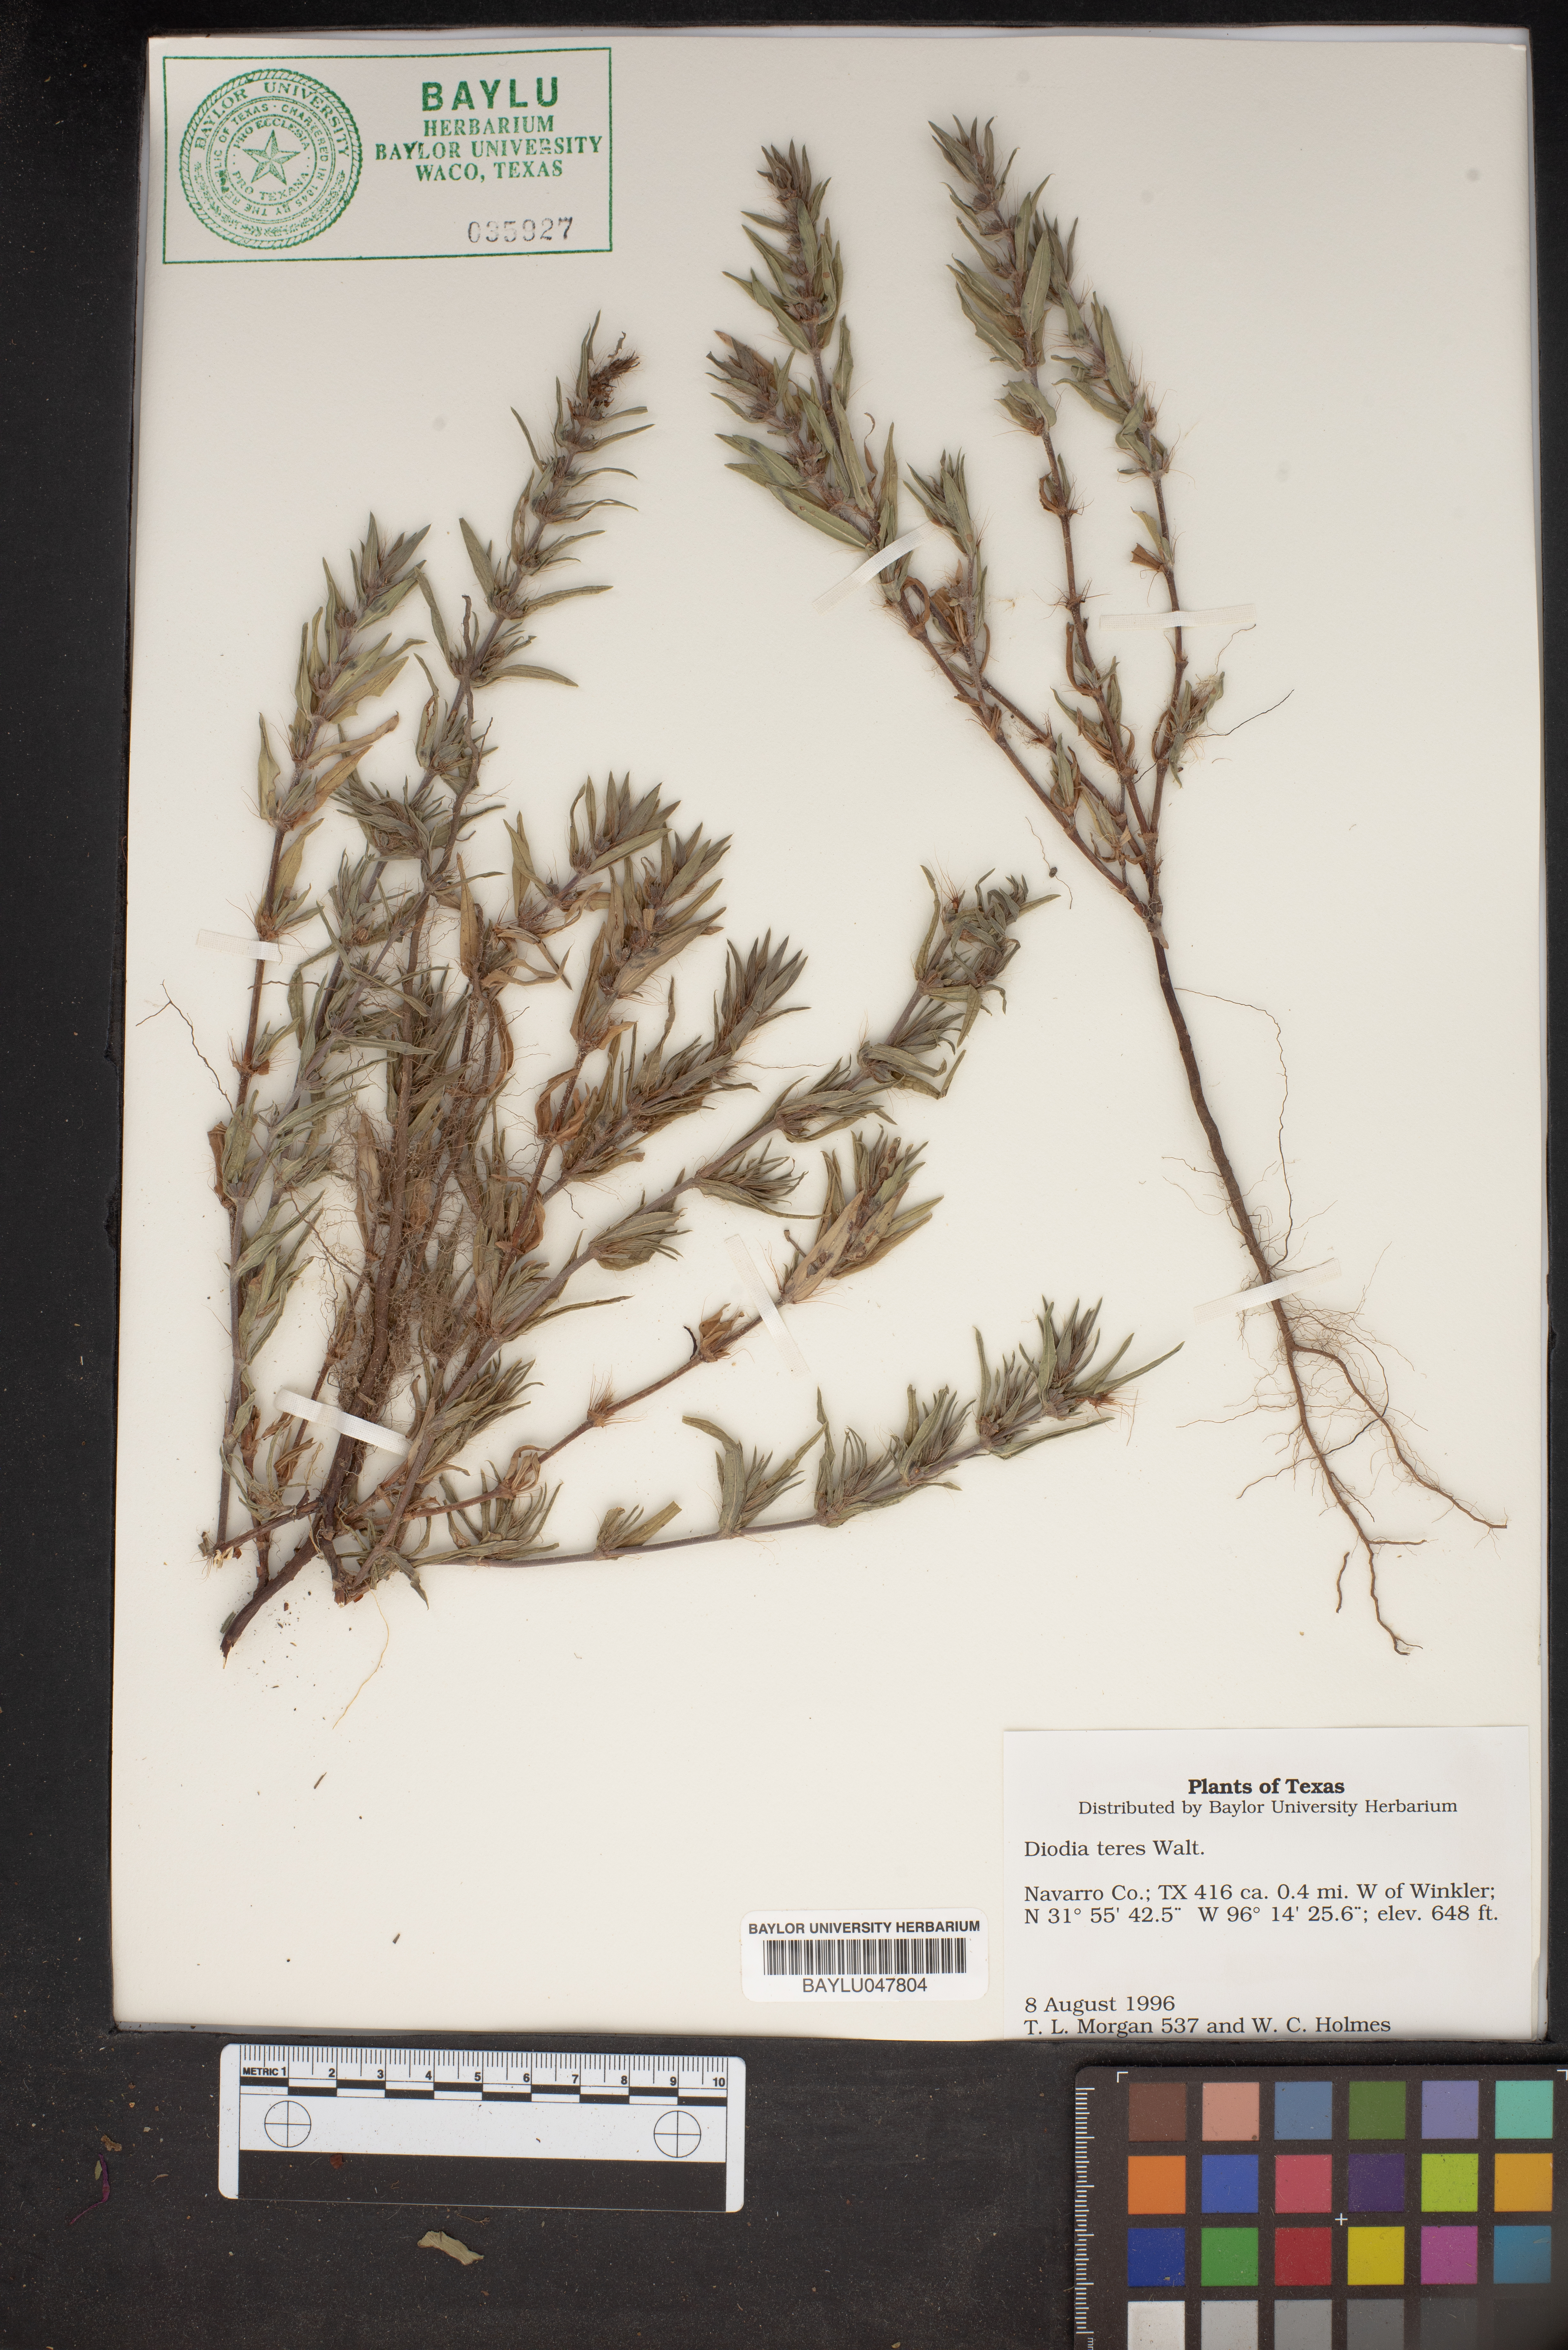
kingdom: Plantae
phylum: Tracheophyta
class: Magnoliopsida
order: Gentianales
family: Rubiaceae
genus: Hexasepalum
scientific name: Hexasepalum teres
